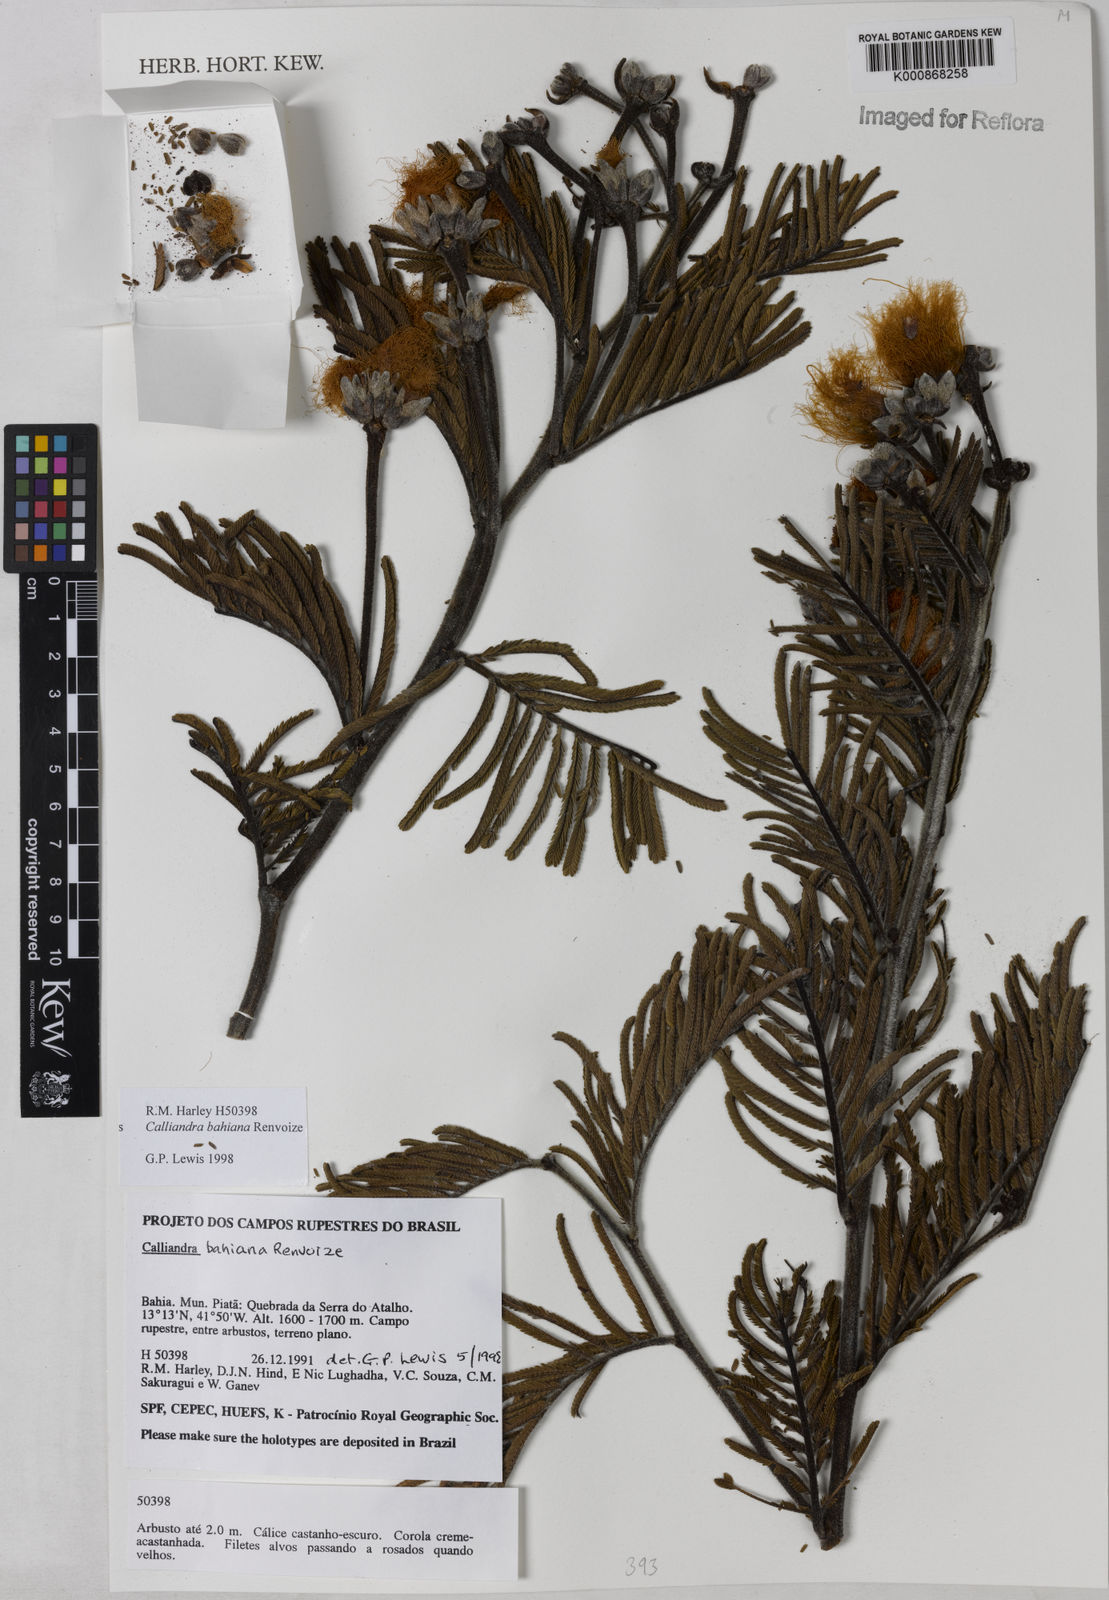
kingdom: Plantae
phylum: Tracheophyta
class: Magnoliopsida
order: Fabales
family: Fabaceae
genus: Calliandra
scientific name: Calliandra bahiana
